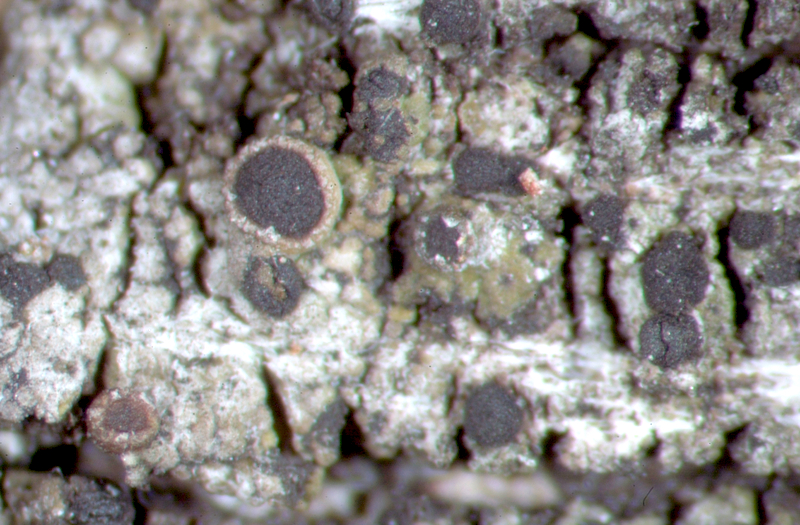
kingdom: Fungi
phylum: Ascomycota
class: Lecanoromycetes
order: Caliciales
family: Caliciaceae
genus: Amandinea
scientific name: Amandinea extenuata
